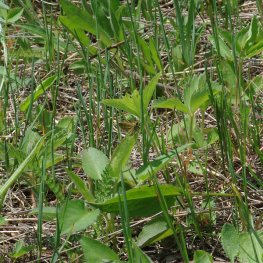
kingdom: Animalia
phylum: Arthropoda
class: Insecta
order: Lepidoptera
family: Hesperiidae
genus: Polites
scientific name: Polites themistocles
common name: Tawny-edged Skipper
